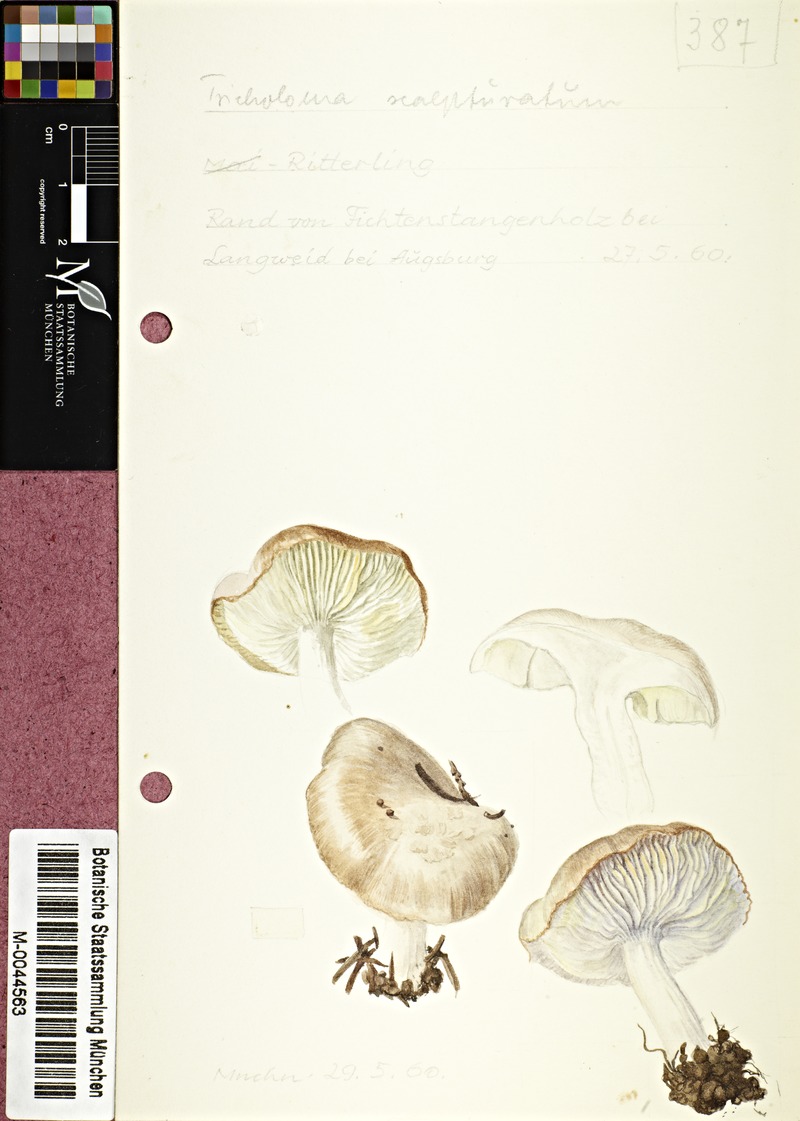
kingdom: Fungi
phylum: Basidiomycota
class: Agaricomycetes
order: Agaricales
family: Tricholomataceae
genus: Tricholoma
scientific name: Tricholoma scalpturatum
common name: Yellowing knight
